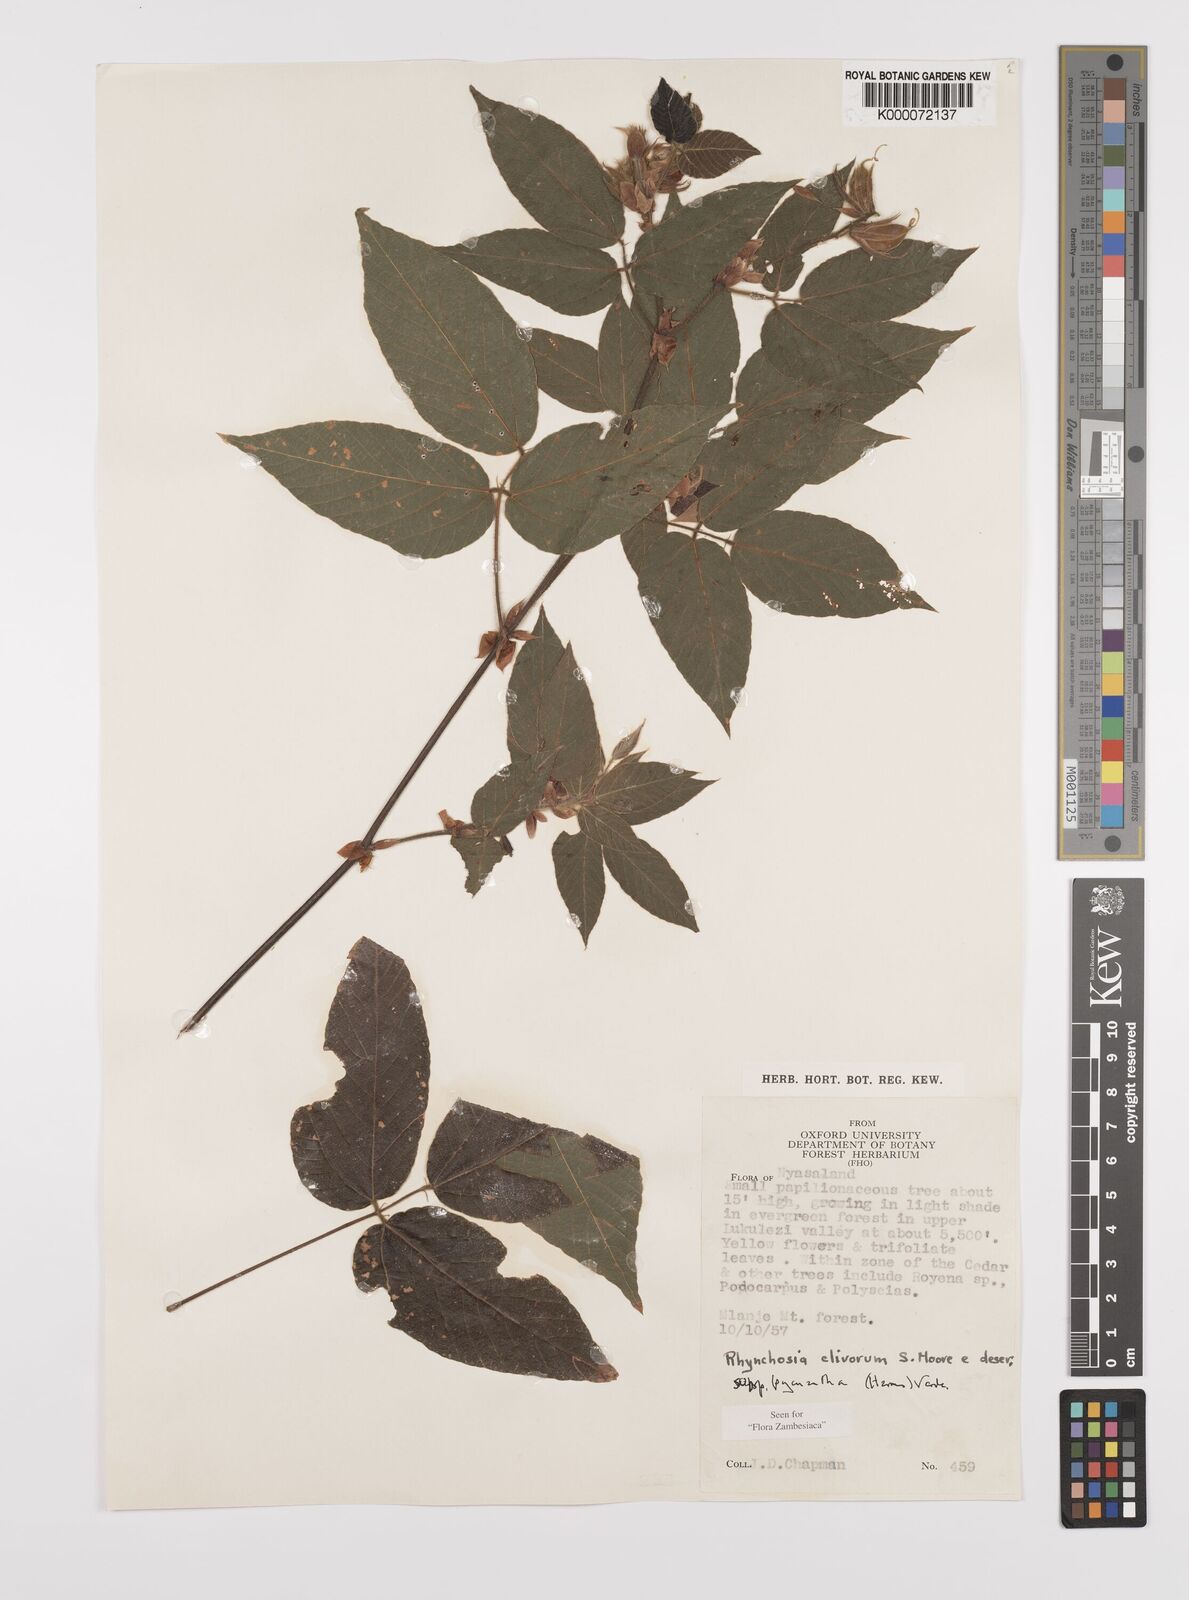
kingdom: Plantae
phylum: Tracheophyta
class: Magnoliopsida
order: Fabales
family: Fabaceae
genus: Rhynchosia
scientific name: Rhynchosia clivorum
